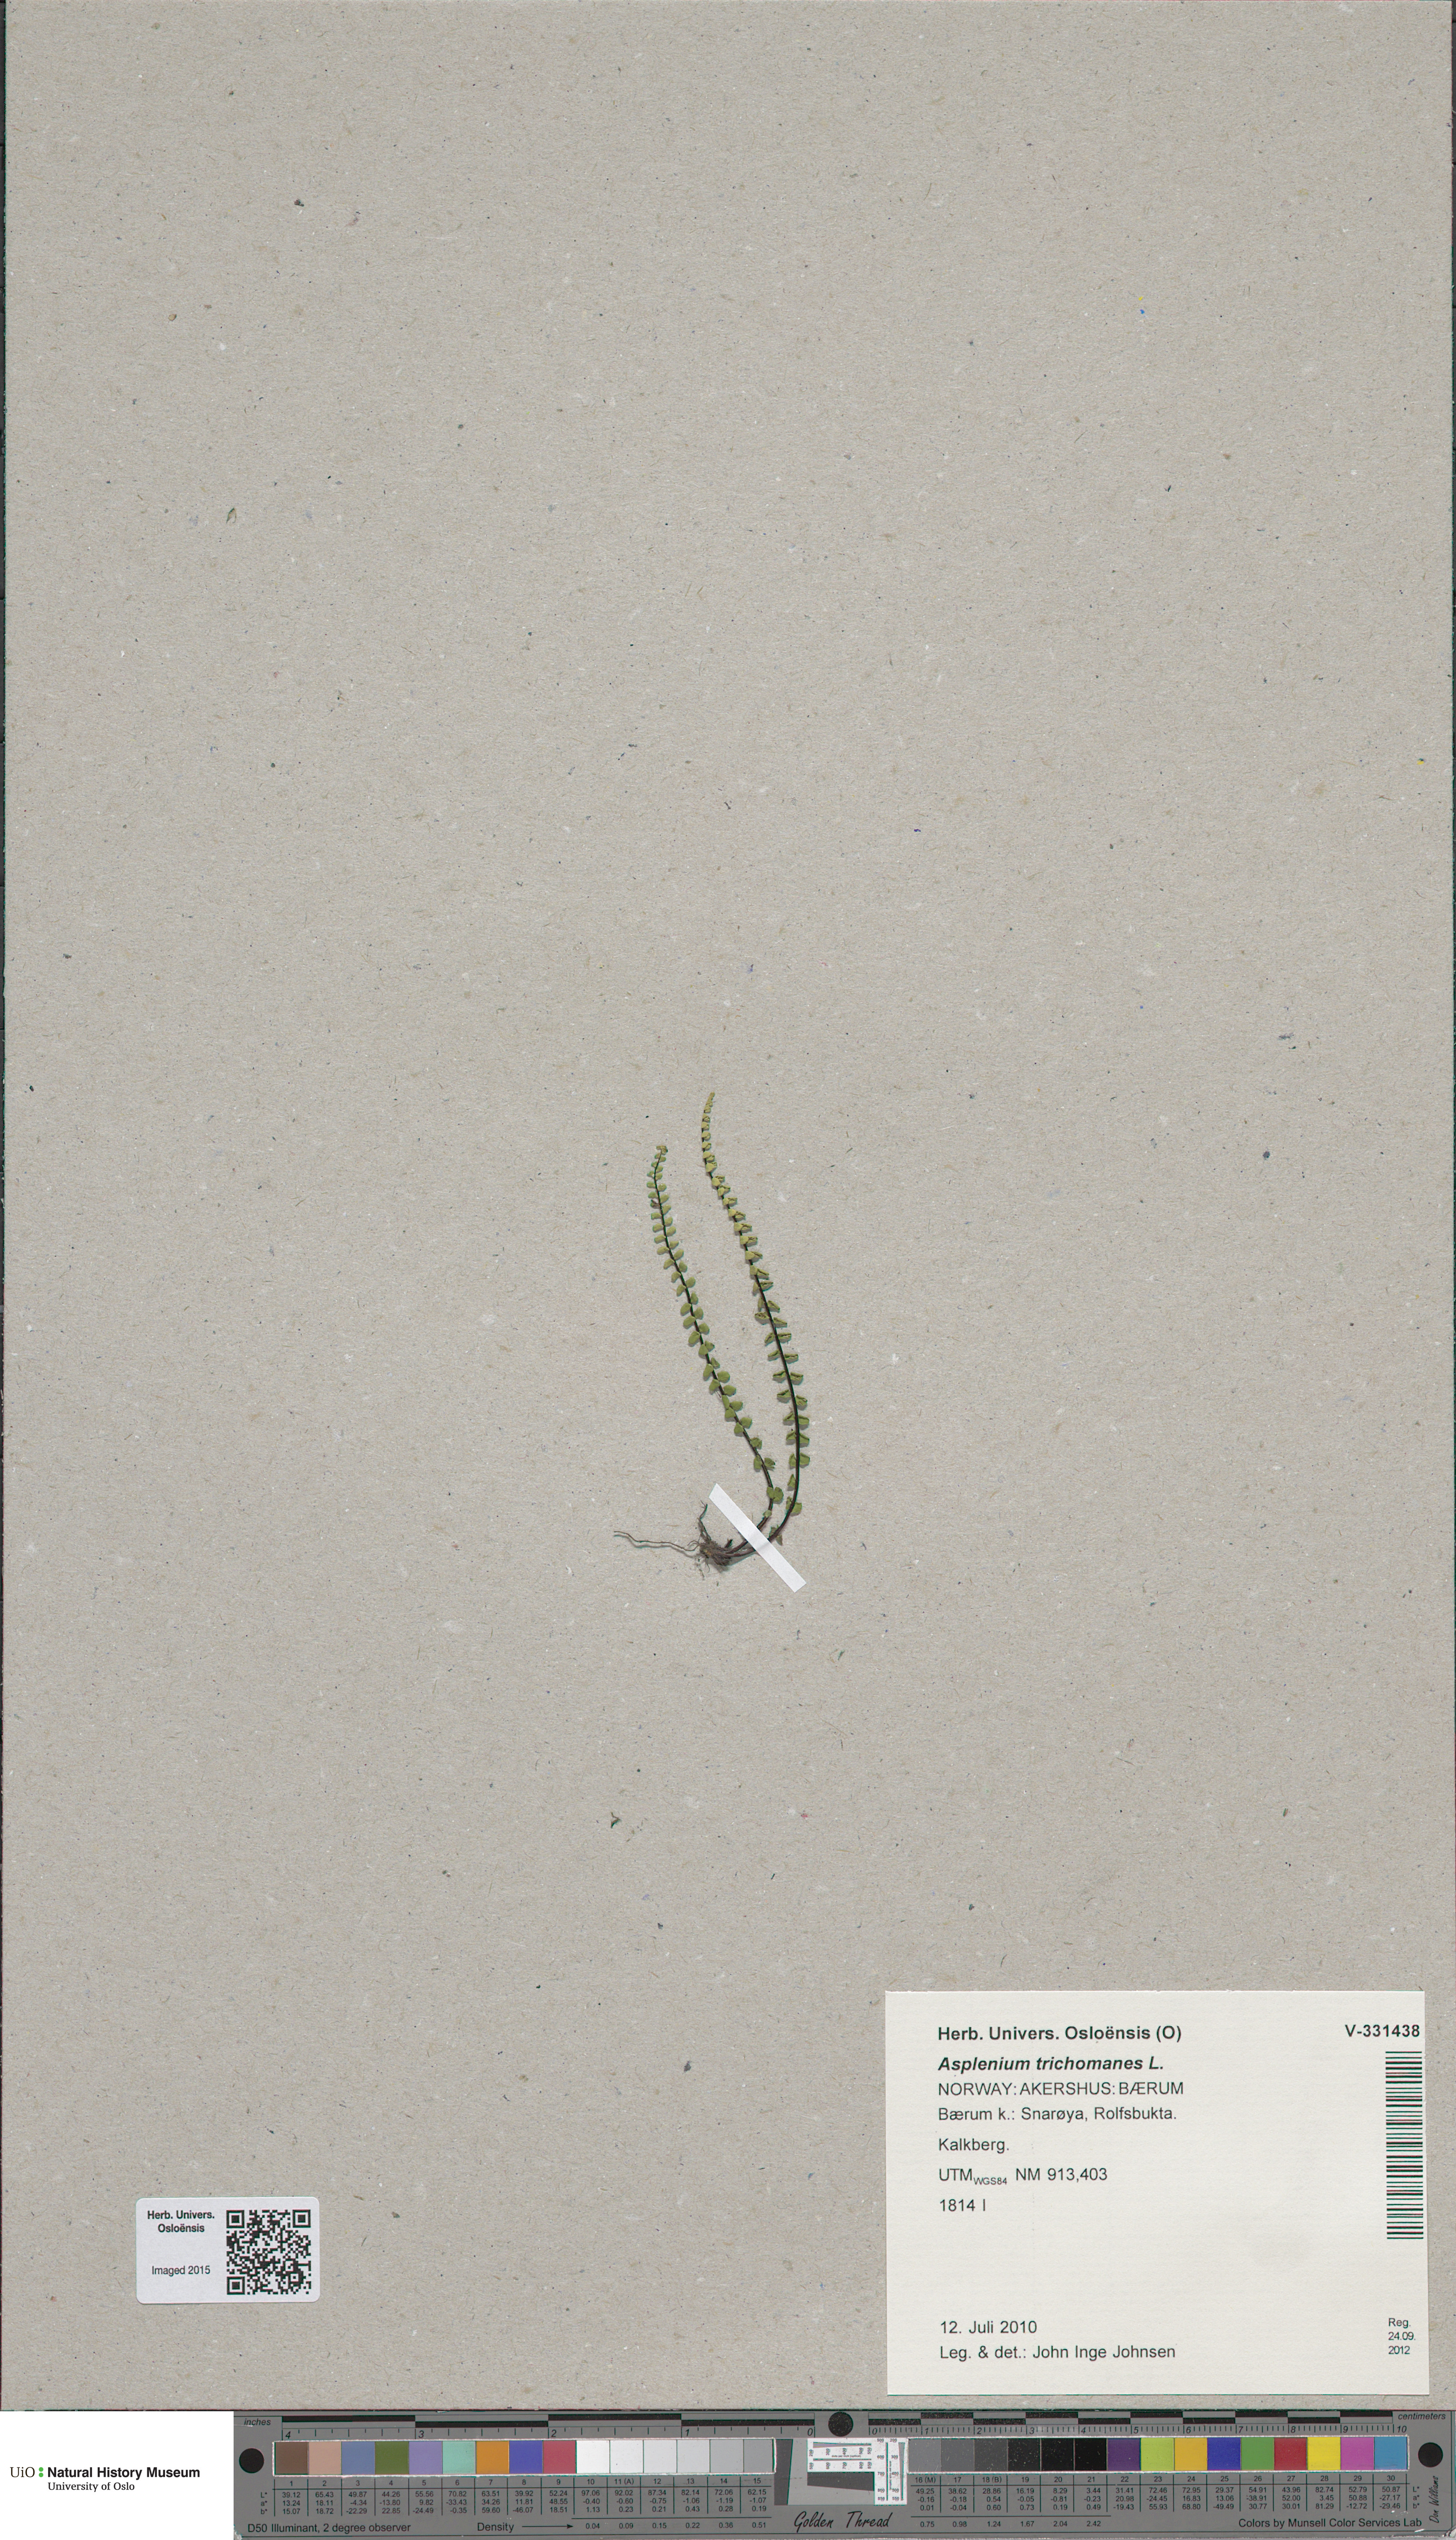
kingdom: Plantae
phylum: Tracheophyta
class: Polypodiopsida
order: Polypodiales
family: Aspleniaceae
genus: Asplenium
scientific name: Asplenium quadrivalens
